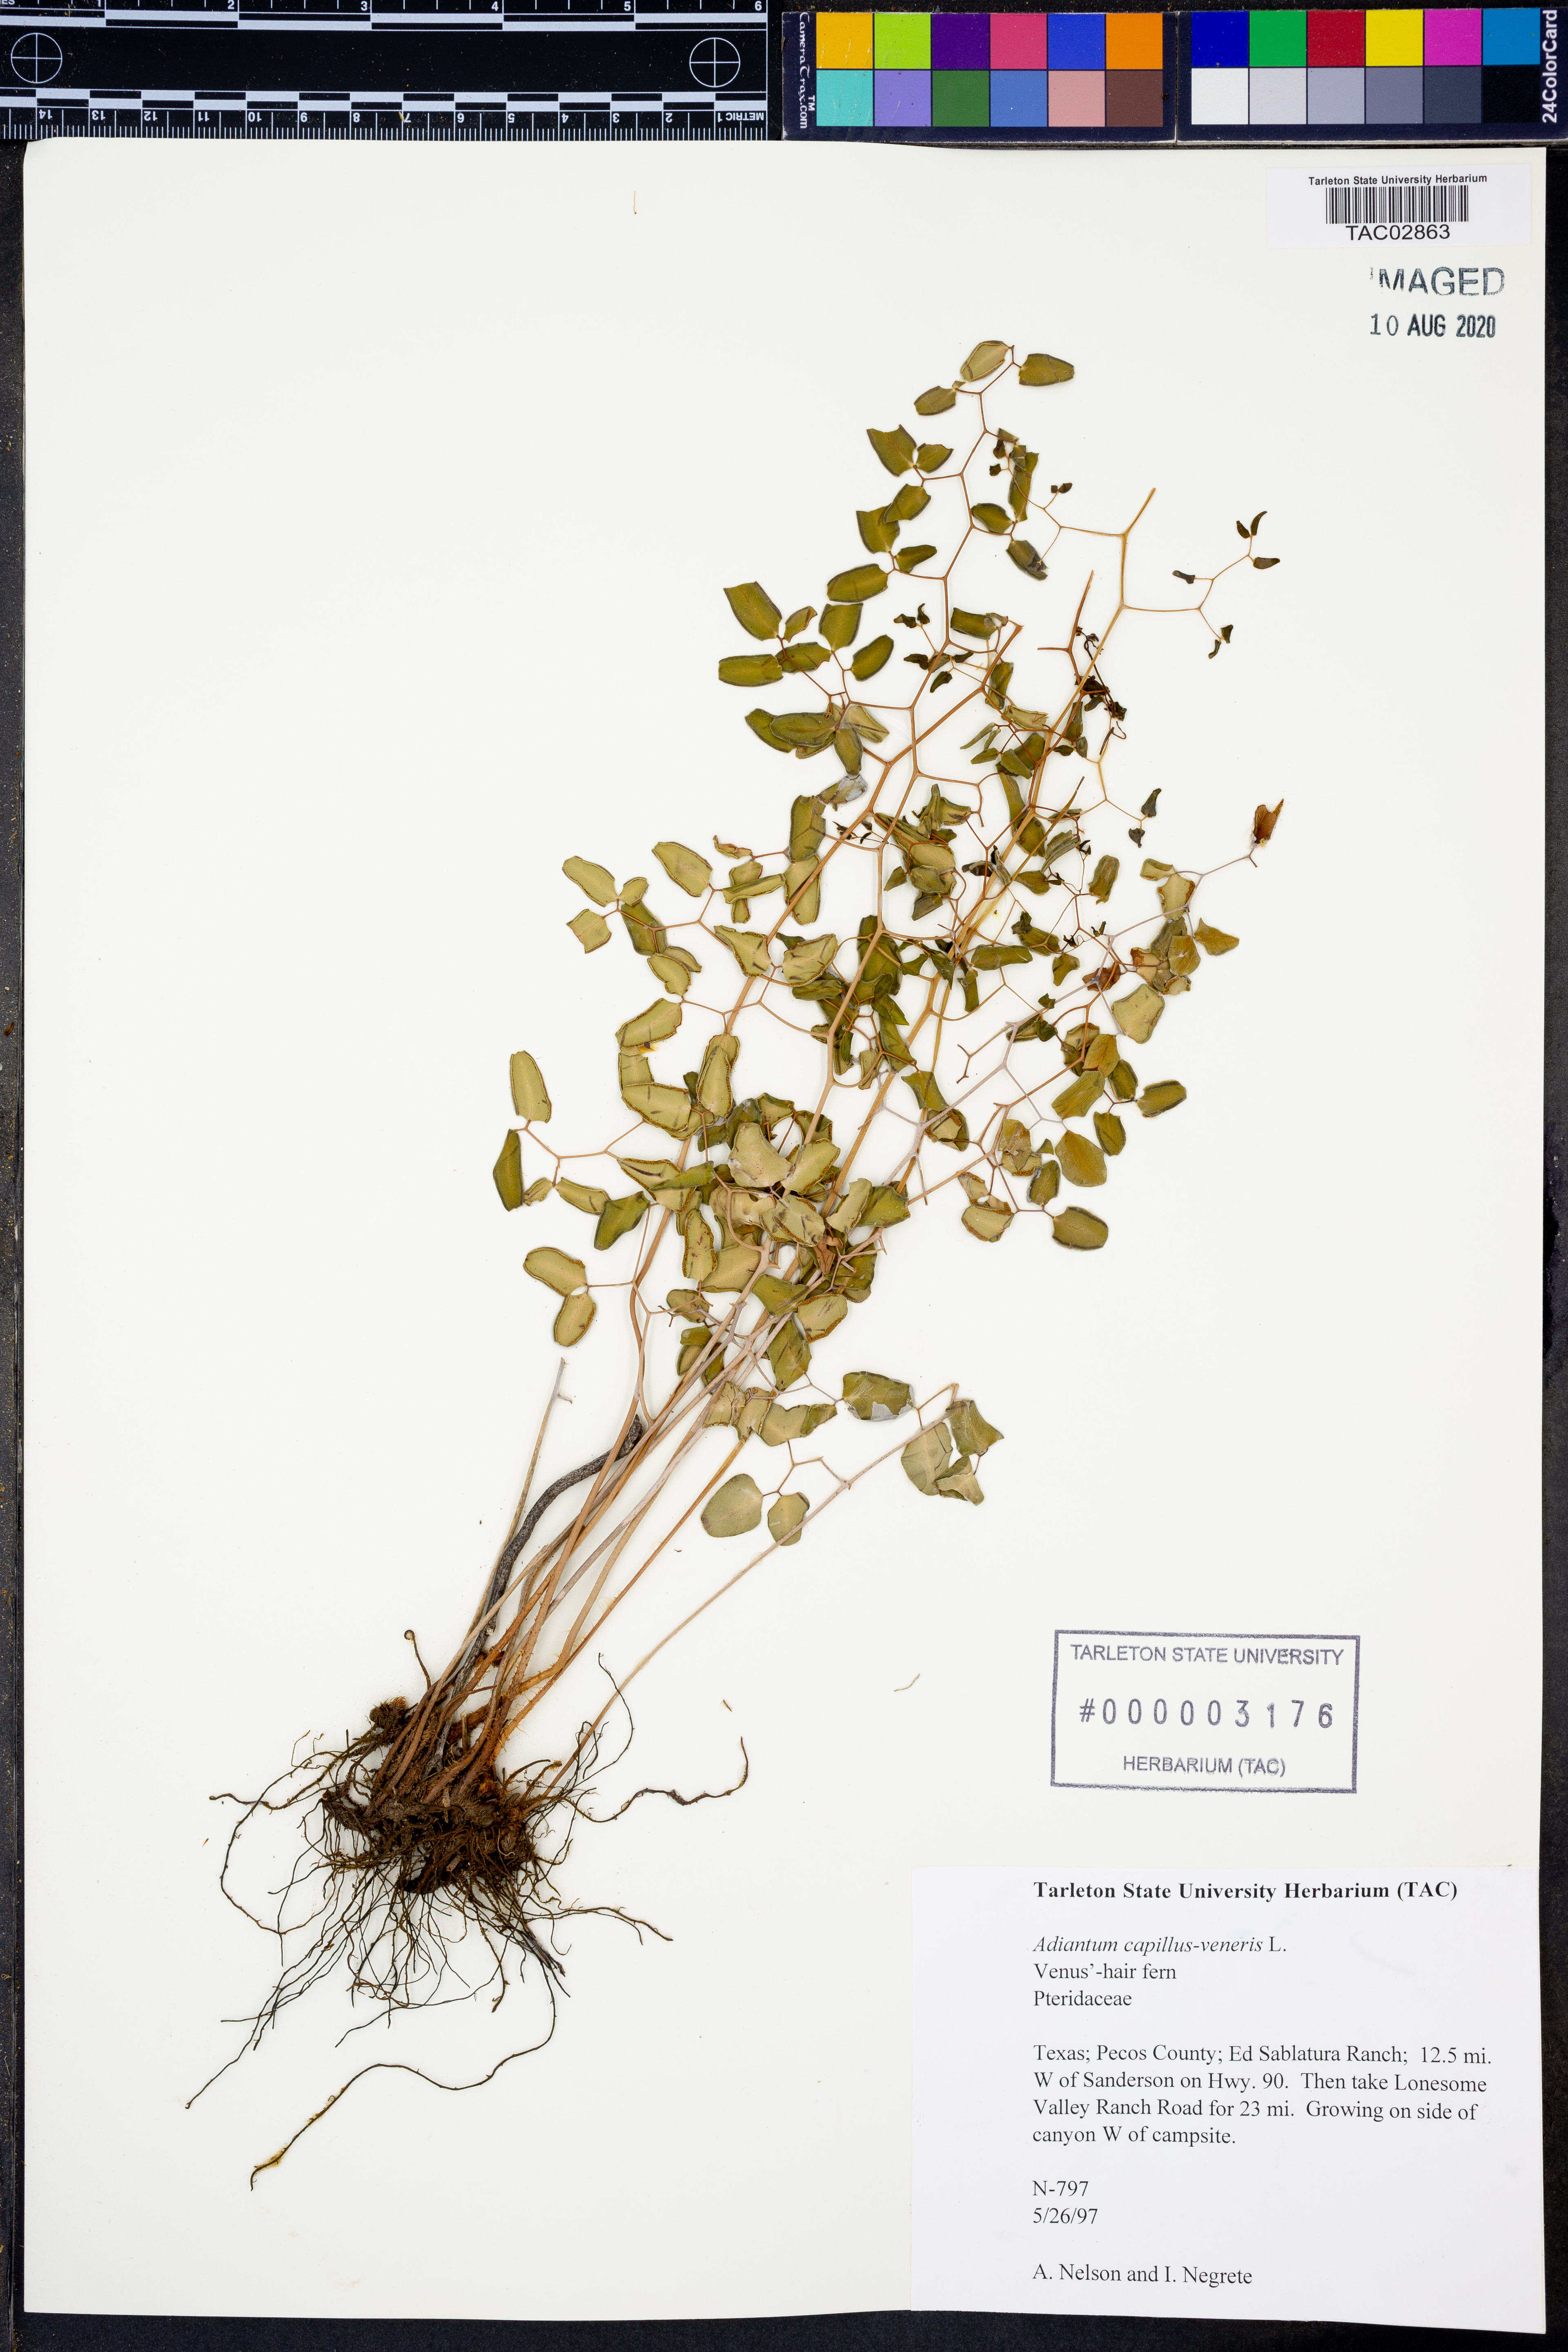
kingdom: Plantae
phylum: Tracheophyta
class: Polypodiopsida
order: Polypodiales
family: Pteridaceae
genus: Adiantum
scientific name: Adiantum capillus-veneris
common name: Maidenhair fern
